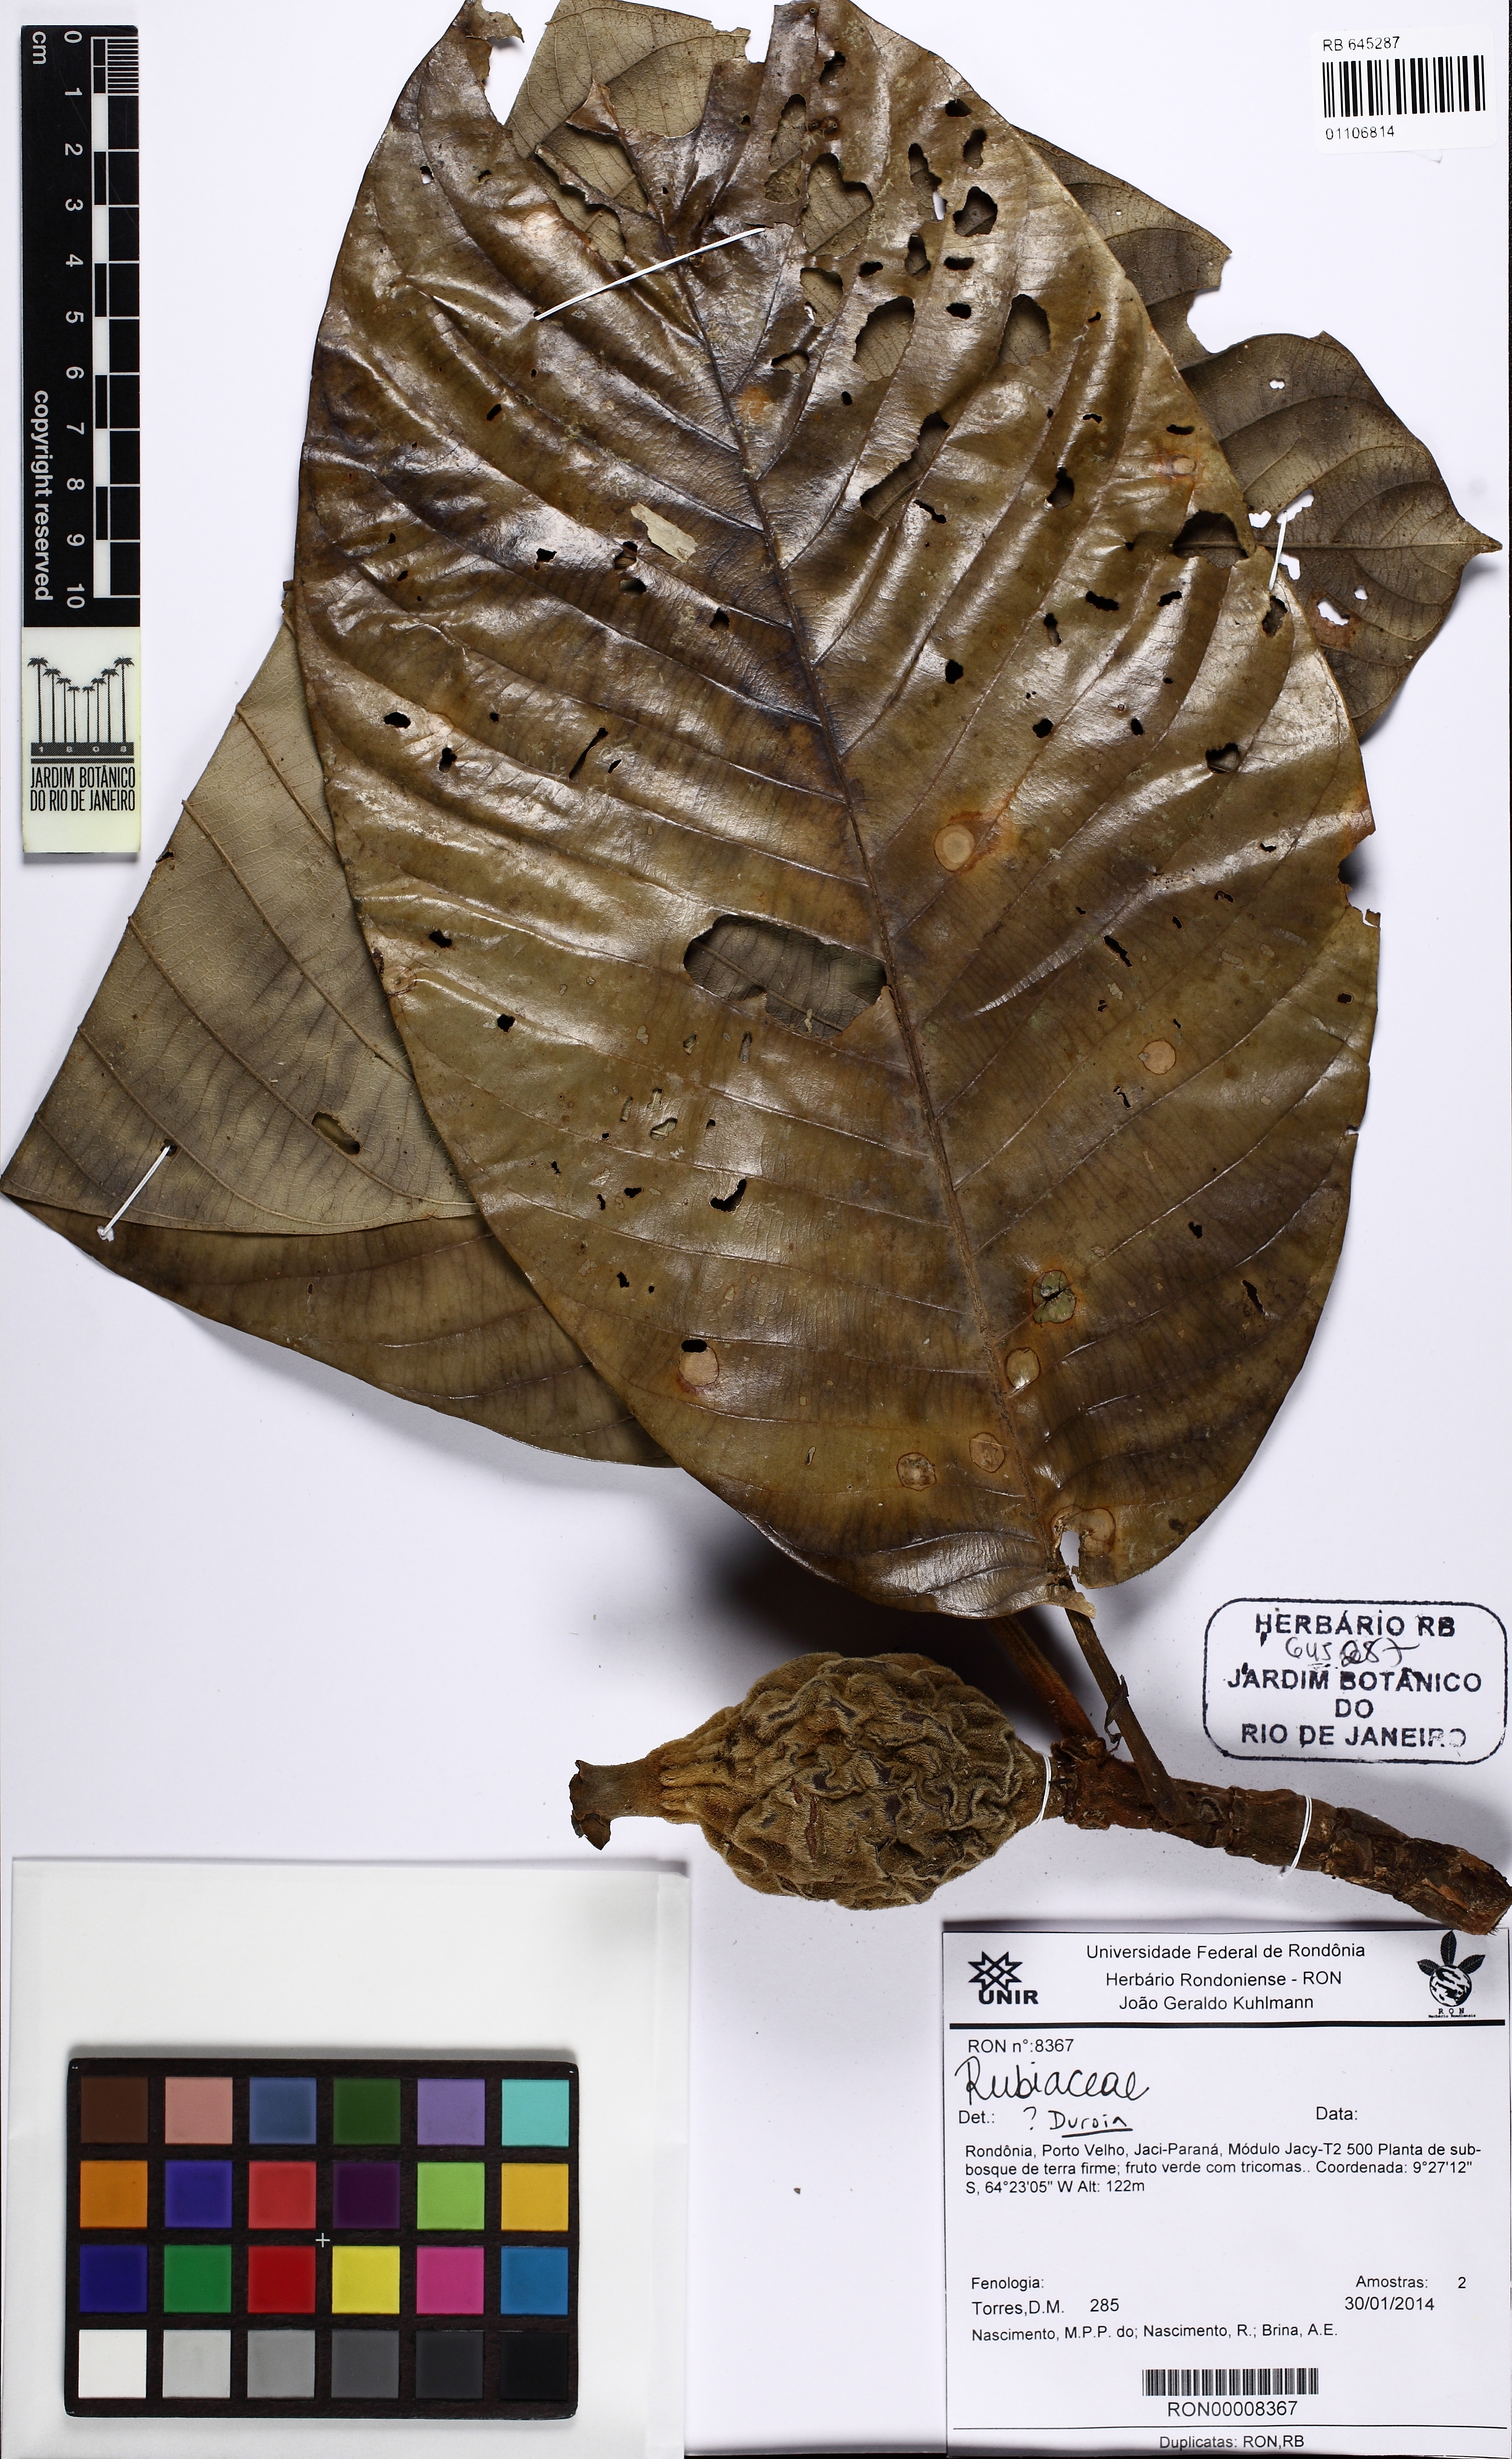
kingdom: Plantae
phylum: Tracheophyta
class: Magnoliopsida
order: Gentianales
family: Rubiaceae
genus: Duroia
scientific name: Duroia
